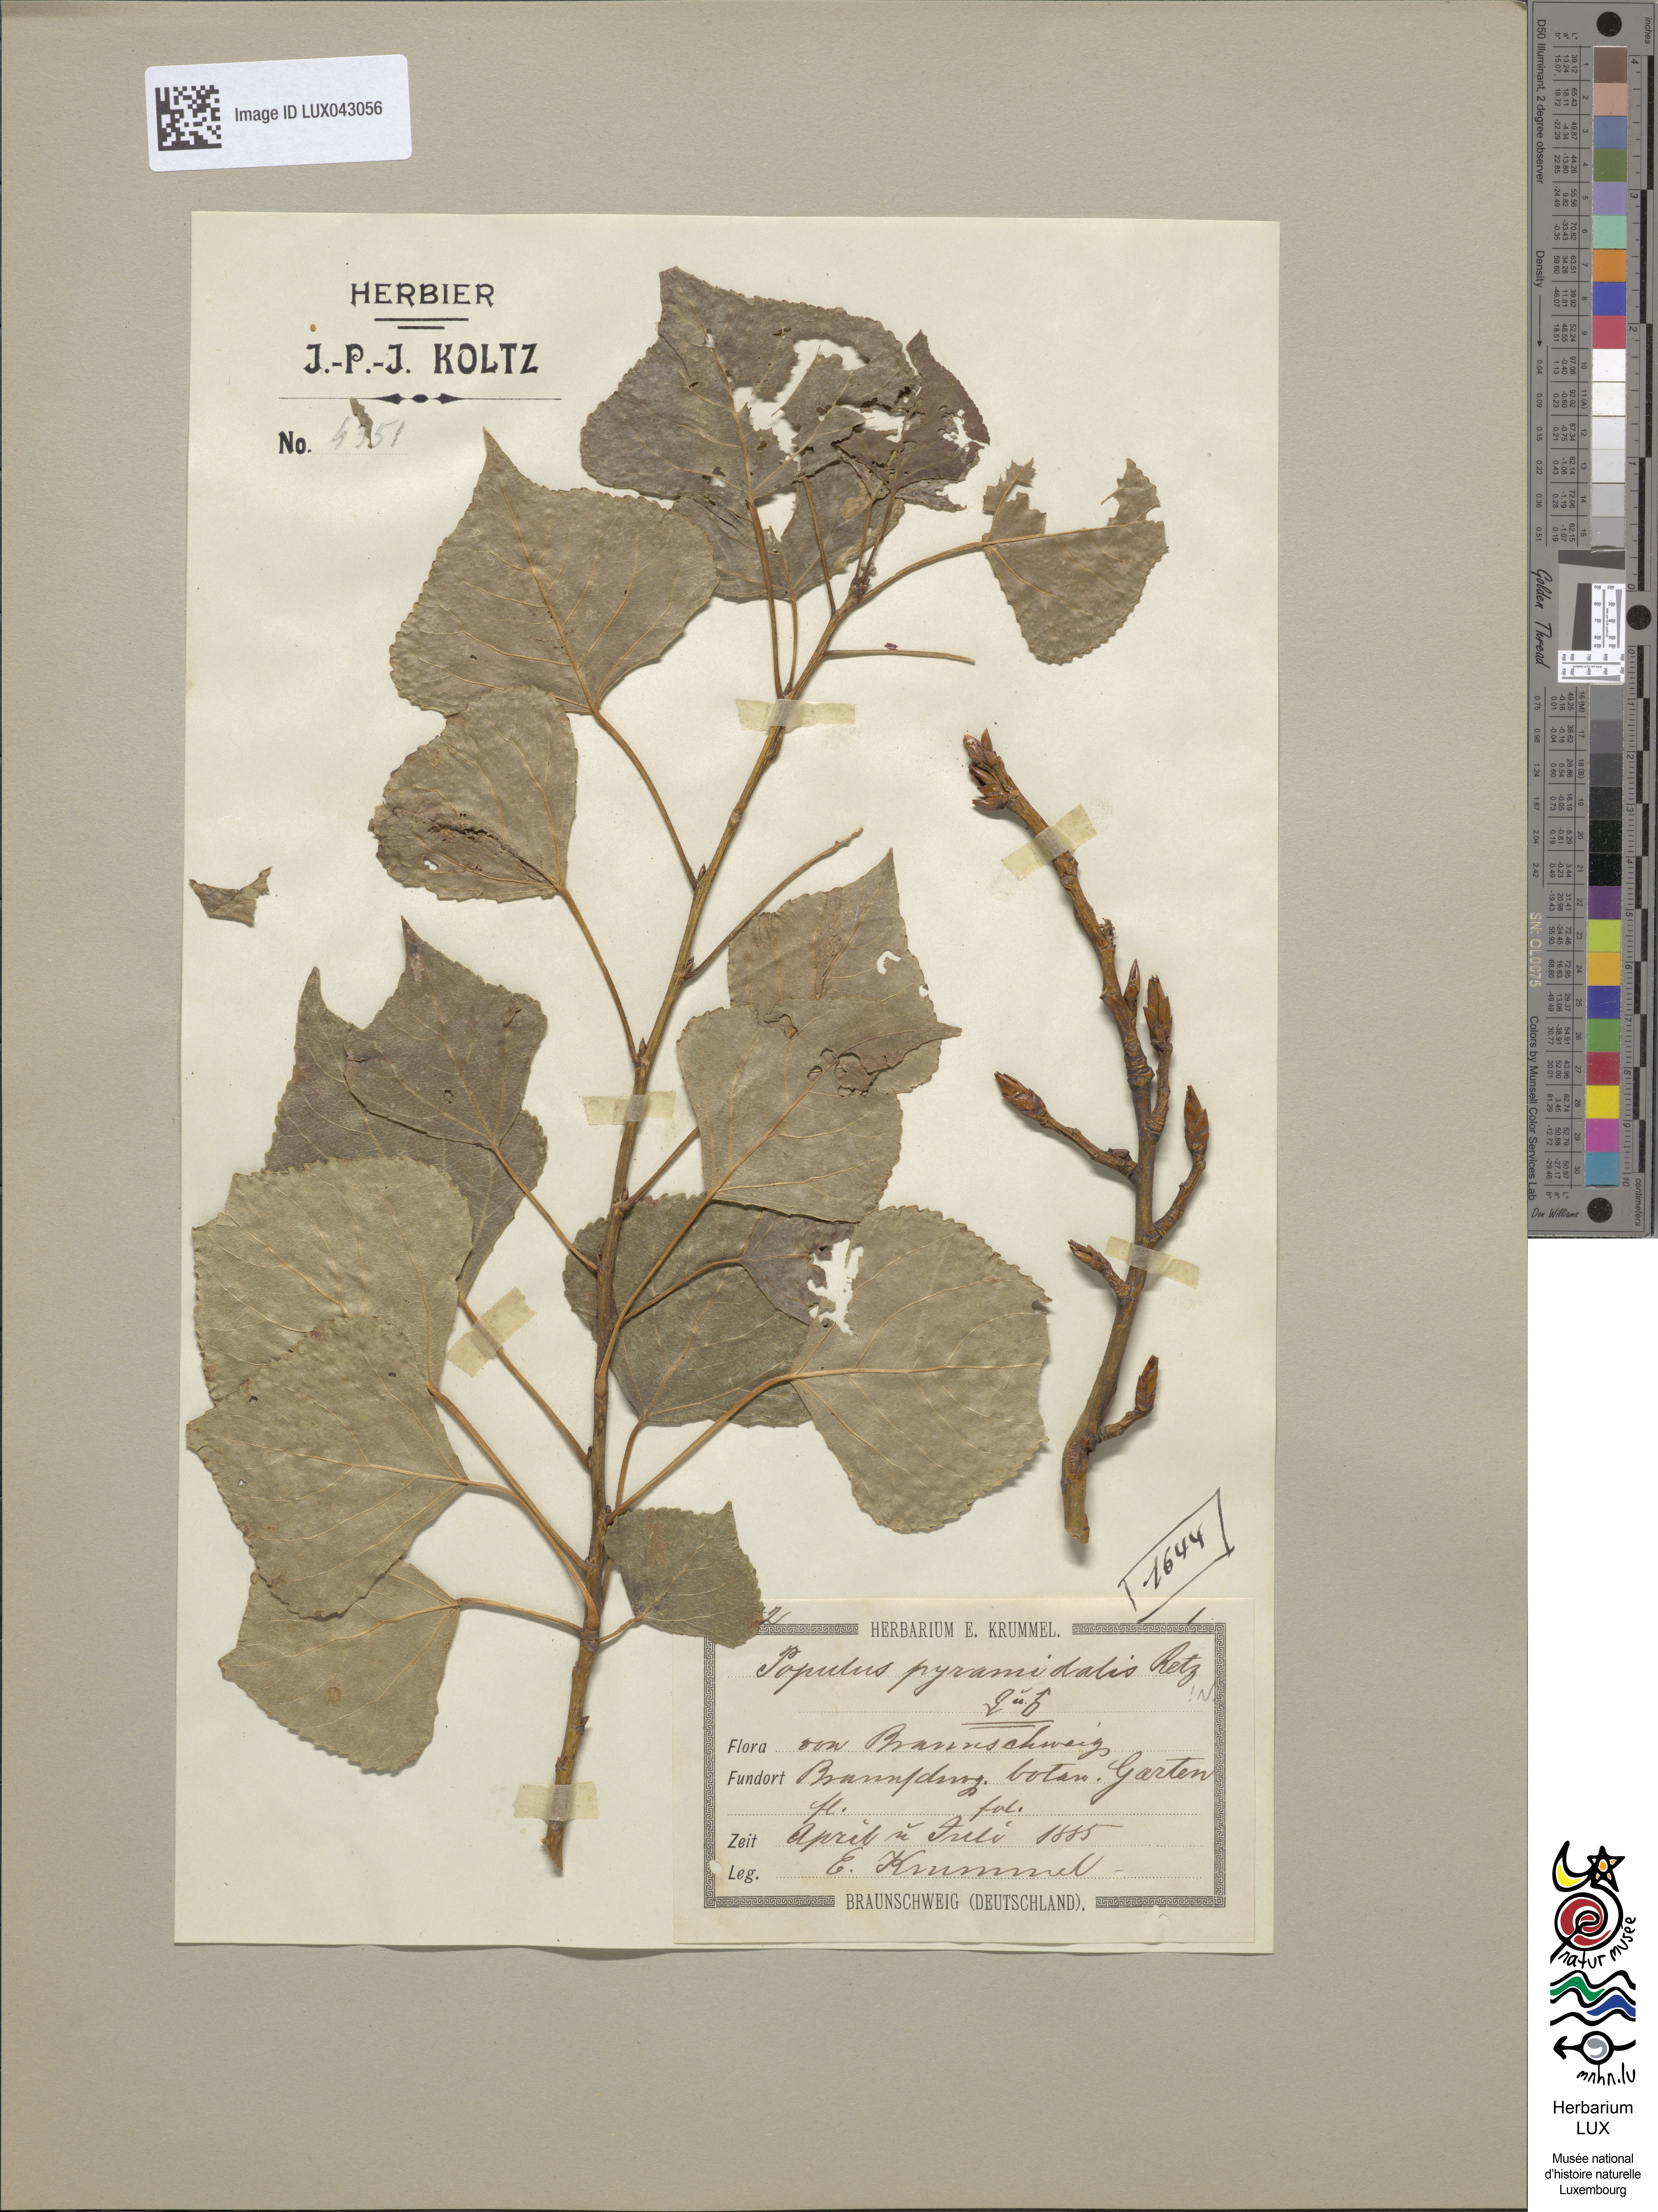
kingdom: Plantae
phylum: Tracheophyta
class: Magnoliopsida
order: Malpighiales
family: Salicaceae
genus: Populus
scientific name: Populus nigra
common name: Black poplar
